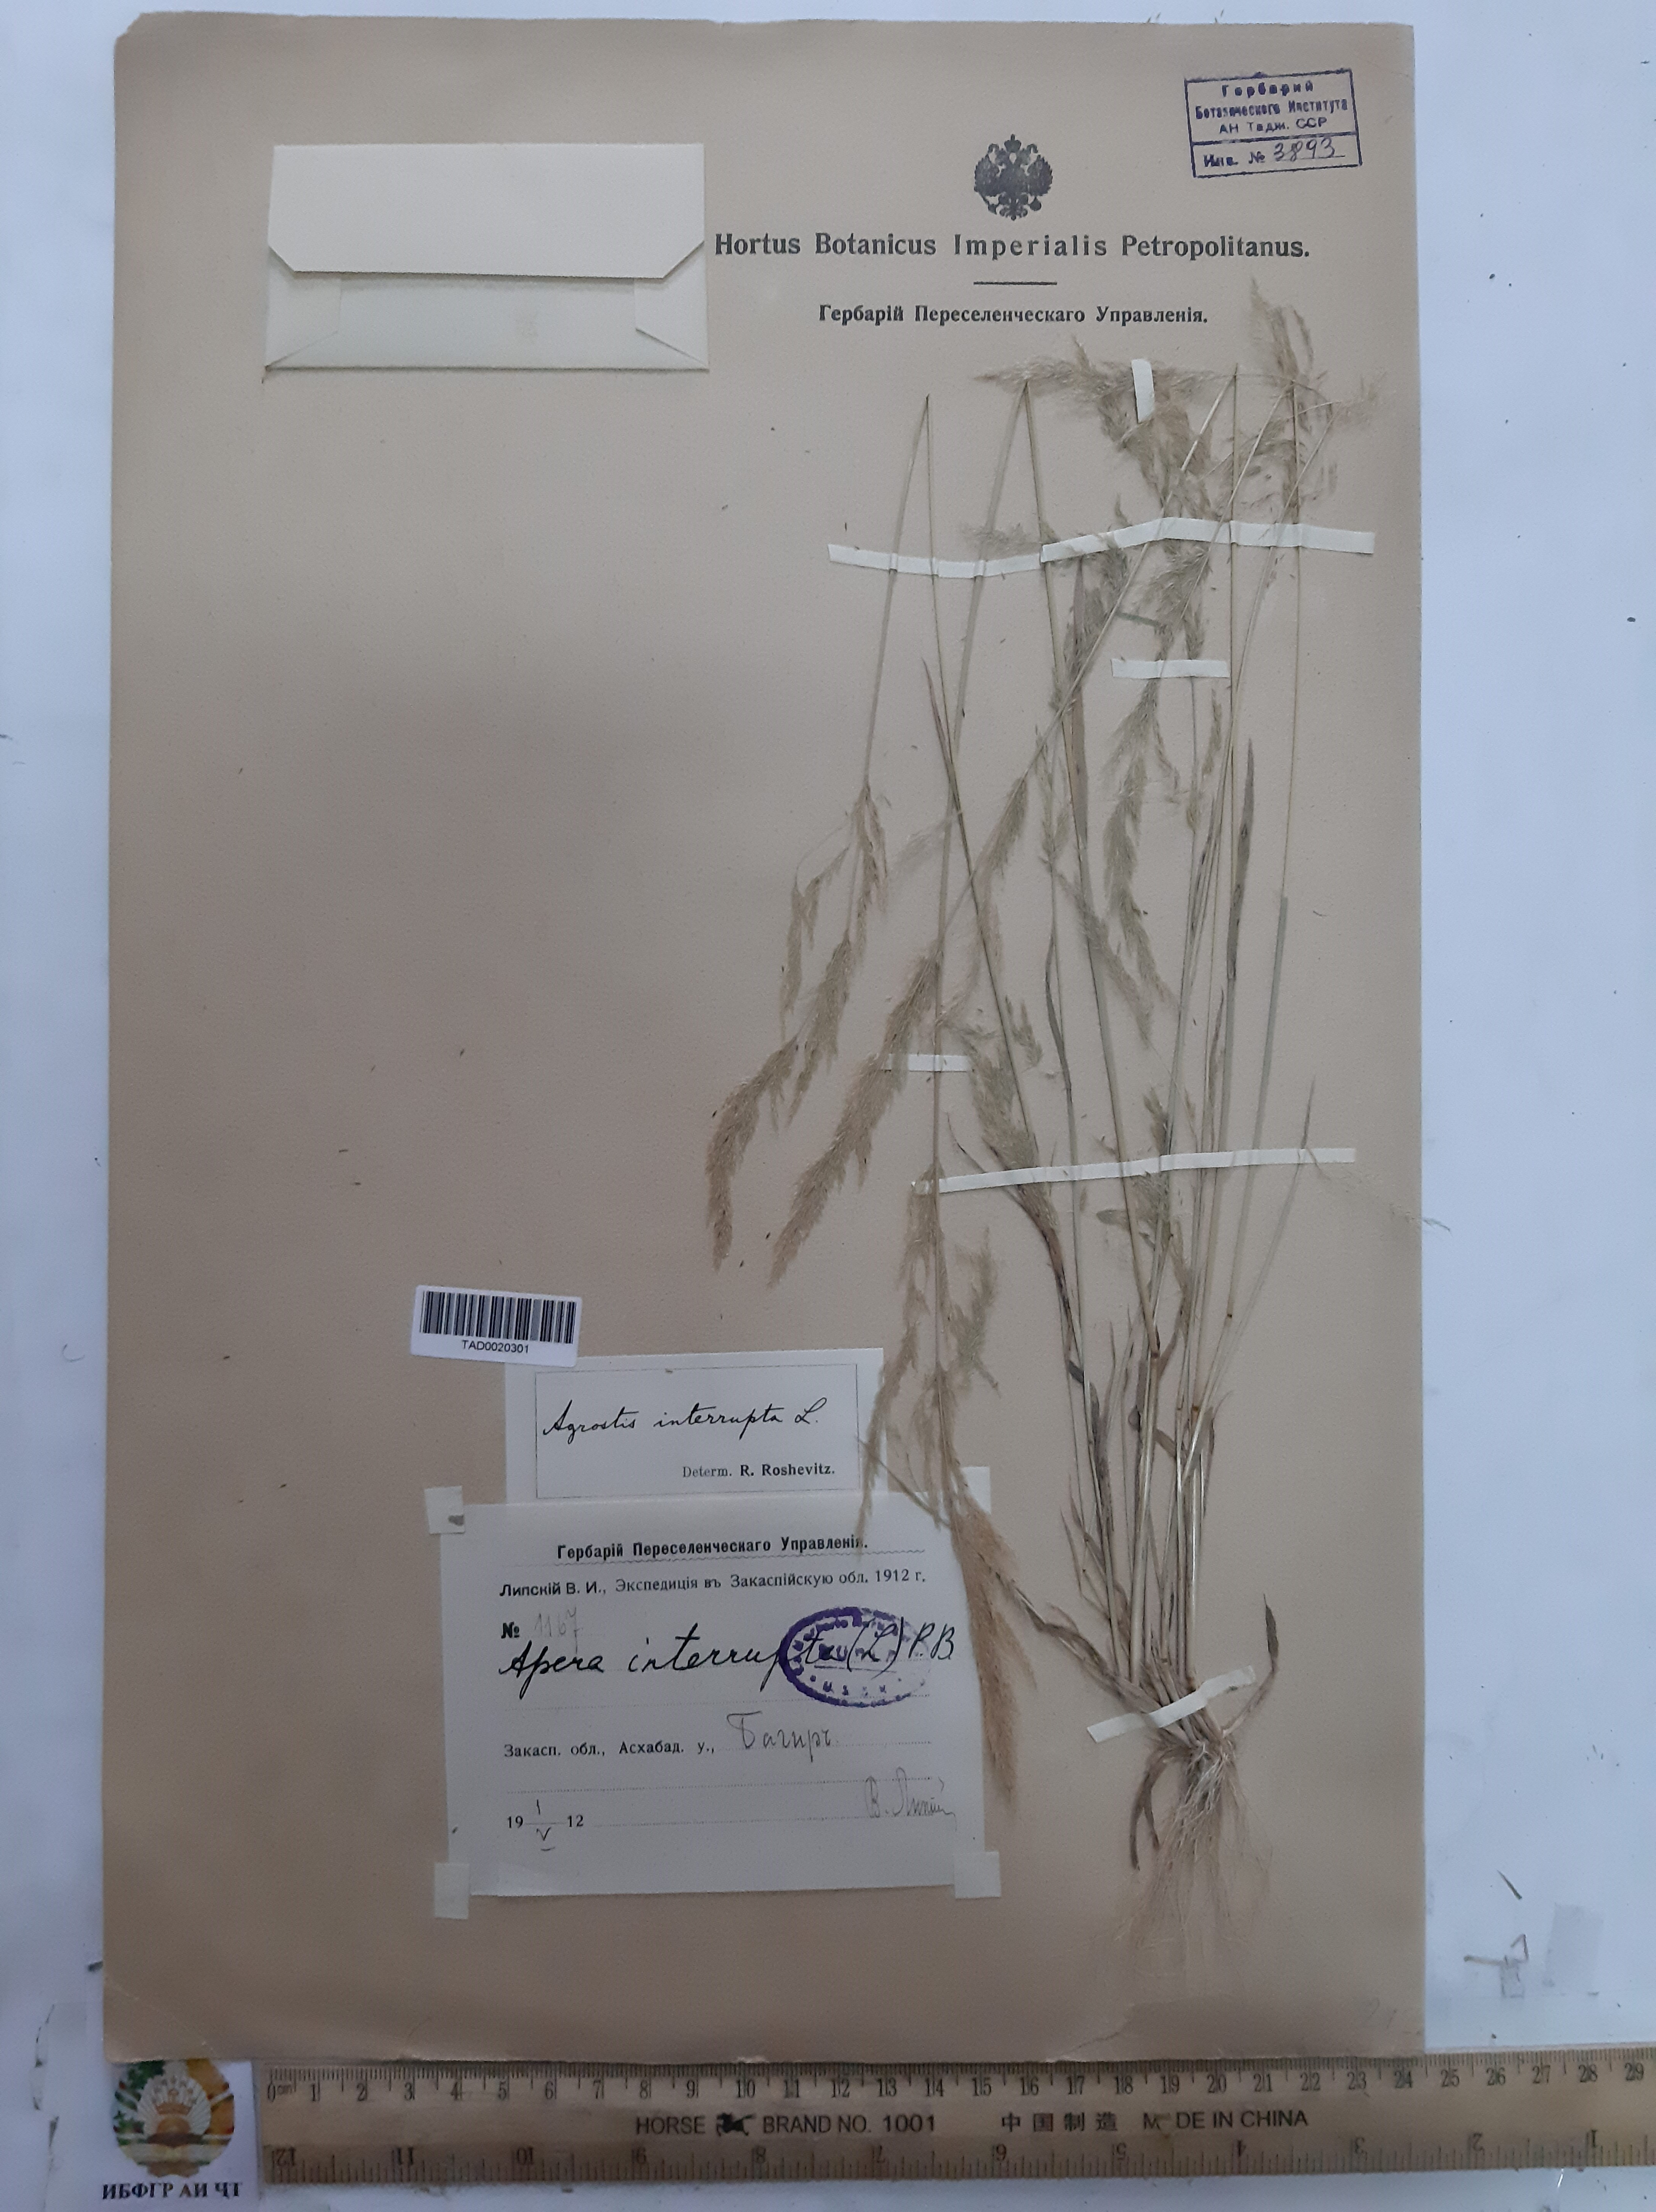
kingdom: Plantae
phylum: Tracheophyta
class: Liliopsida
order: Poales
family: Poaceae
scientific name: Poaceae
